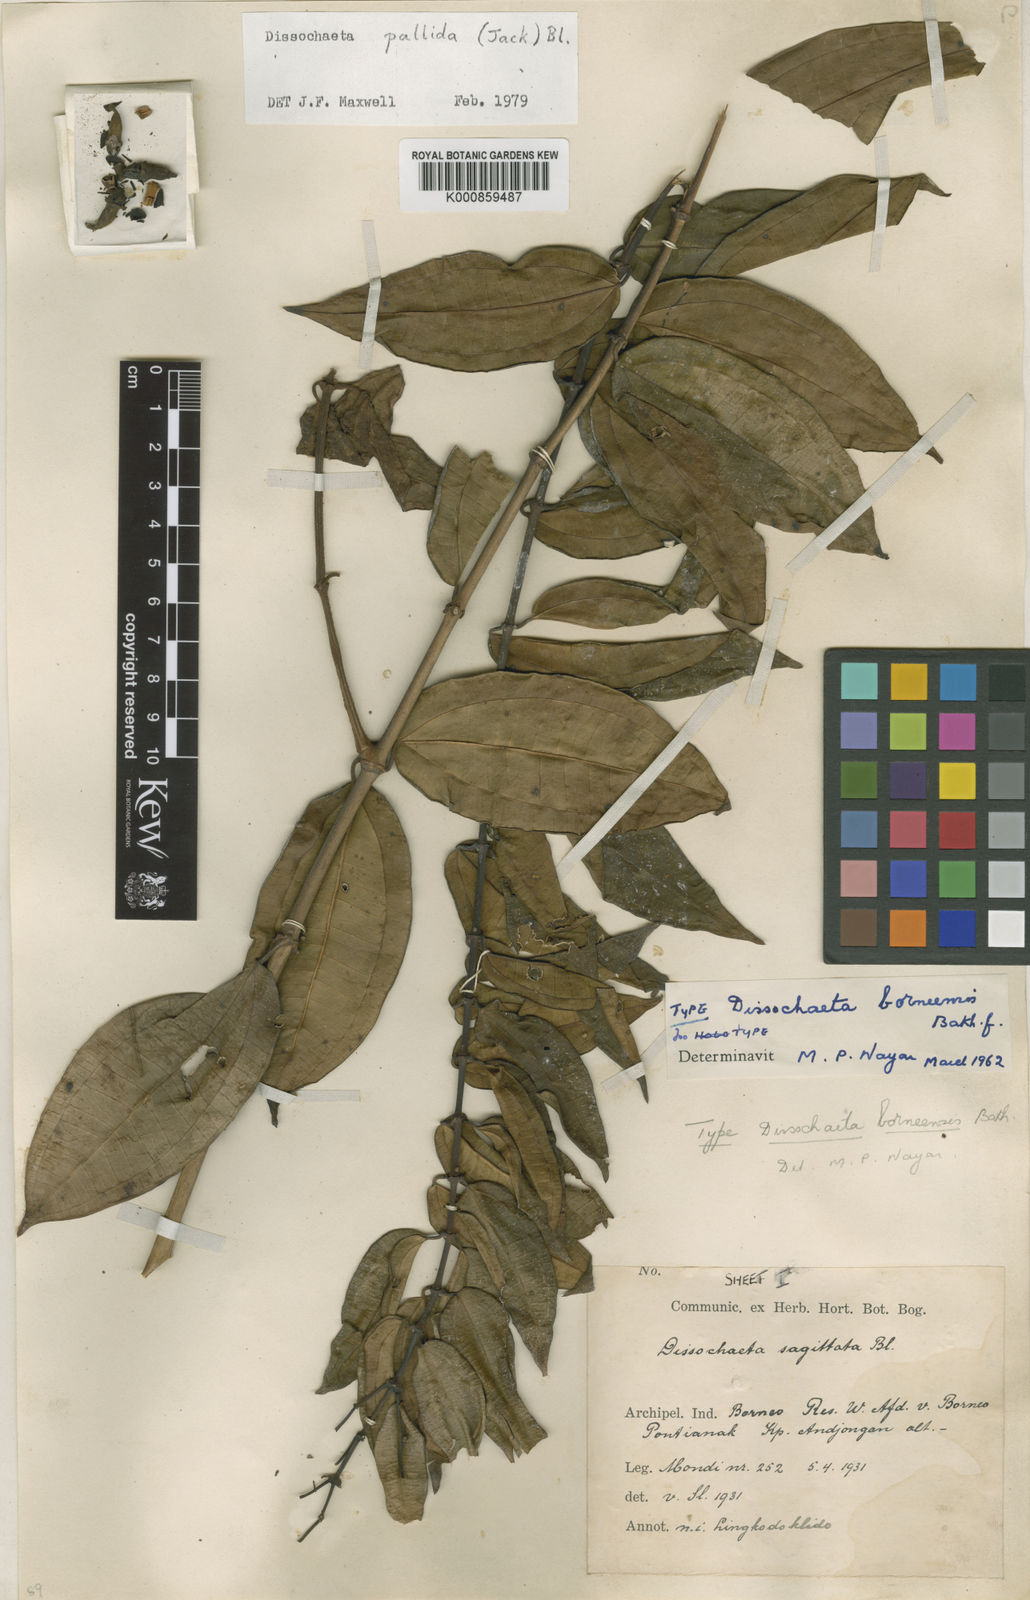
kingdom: Plantae
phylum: Tracheophyta
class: Magnoliopsida
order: Myrtales
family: Melastomataceae
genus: Dissochaeta
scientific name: Dissochaeta pallida
